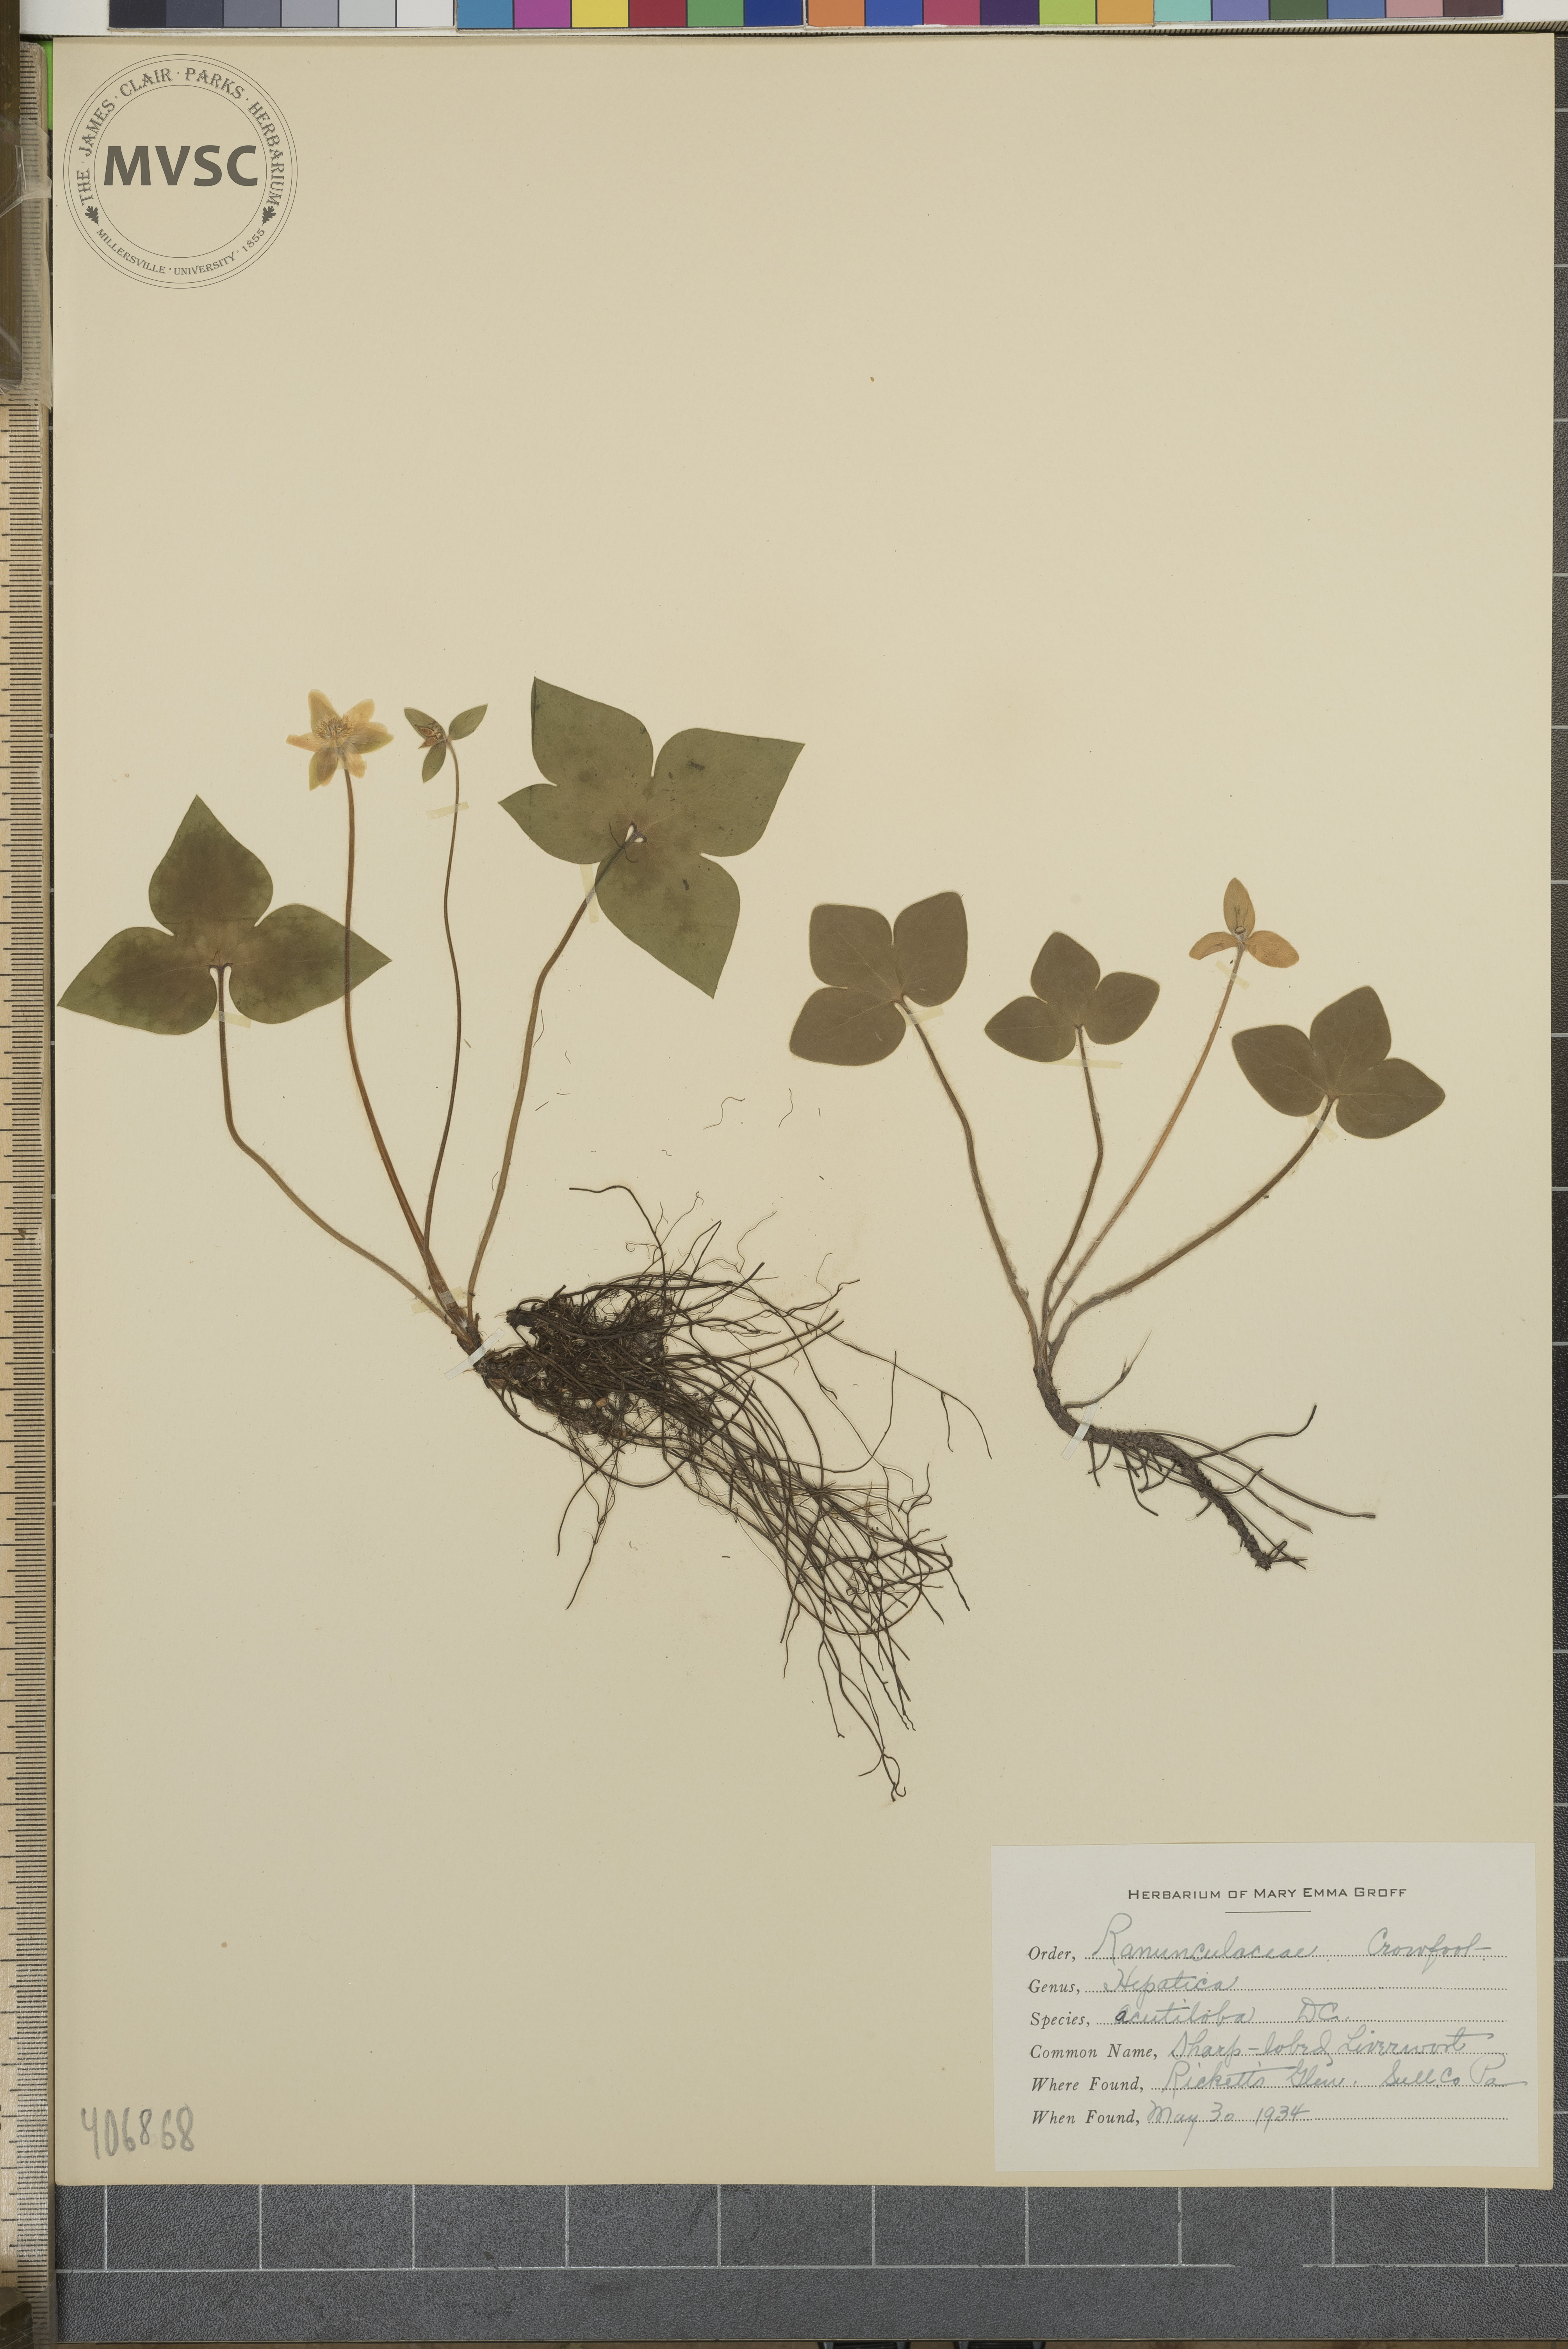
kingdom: Plantae
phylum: Tracheophyta
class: Magnoliopsida
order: Ranunculales
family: Ranunculaceae
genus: Hepatica
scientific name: Hepatica acutiloba
